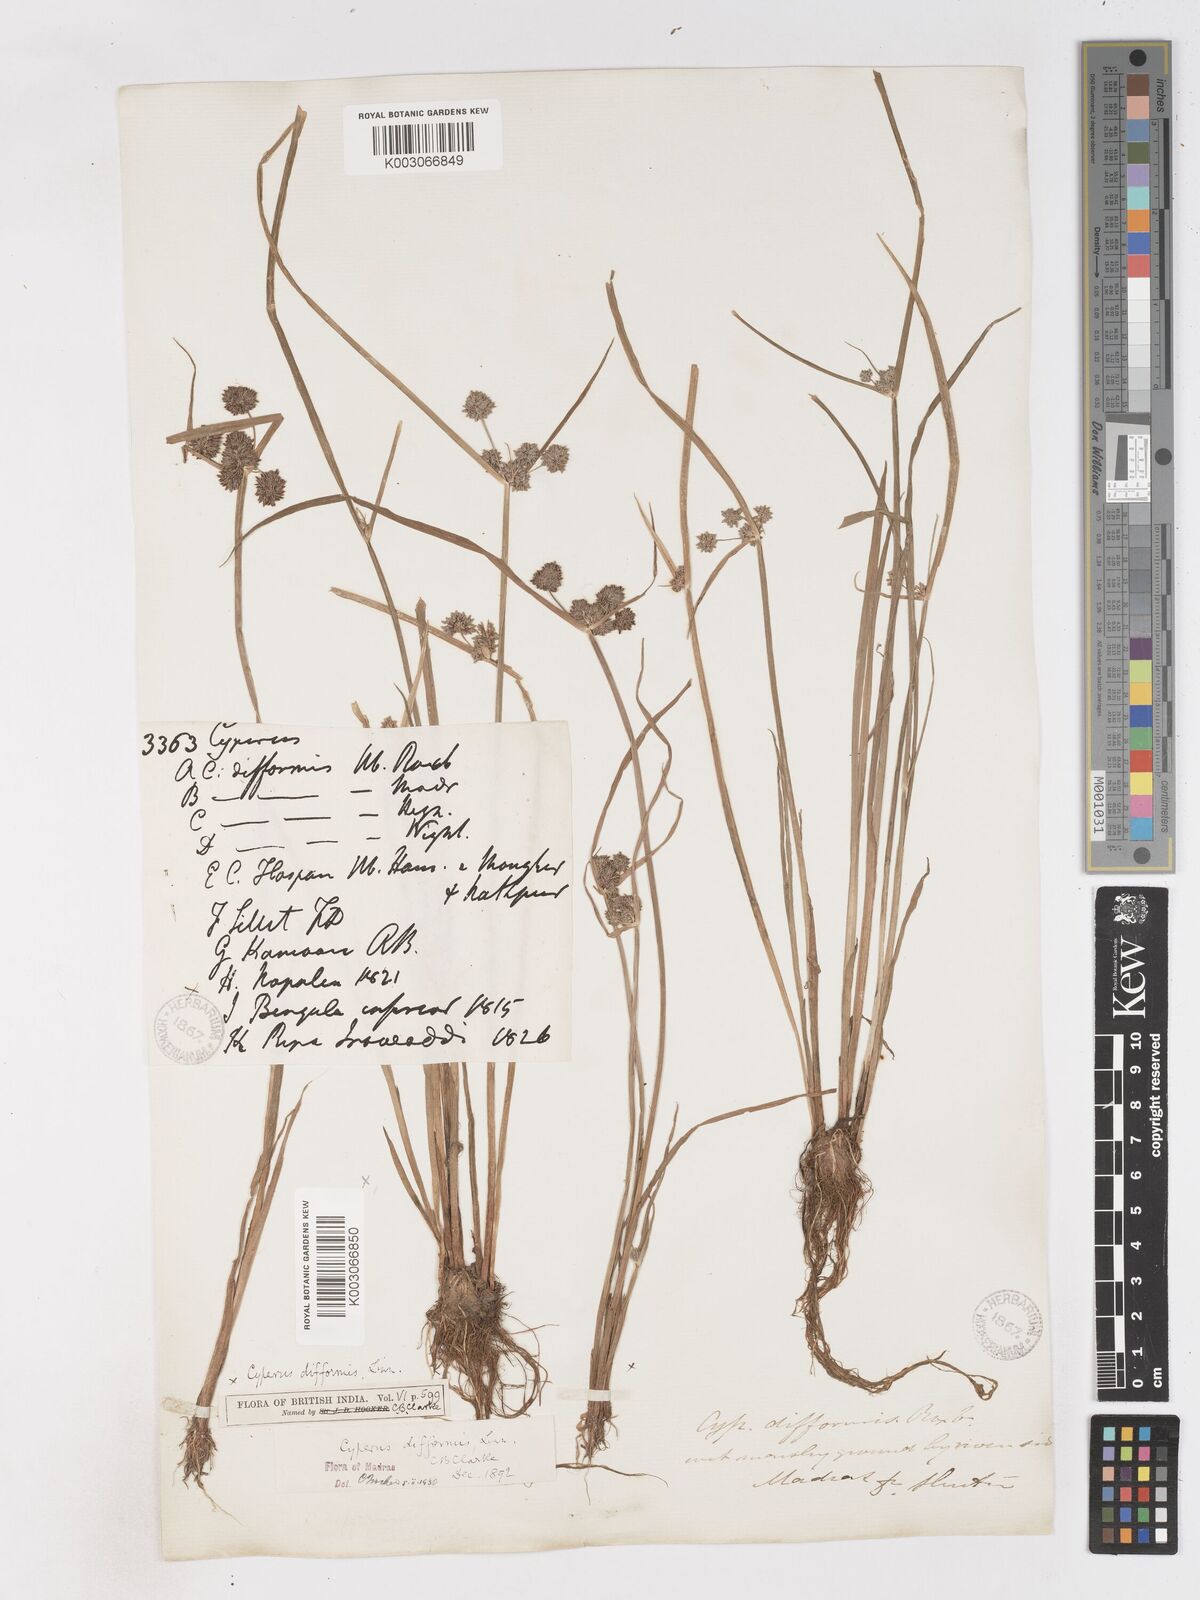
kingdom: Plantae
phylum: Tracheophyta
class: Liliopsida
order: Poales
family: Cyperaceae
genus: Cyperus
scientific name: Cyperus difformis
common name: Variable flatsedge
